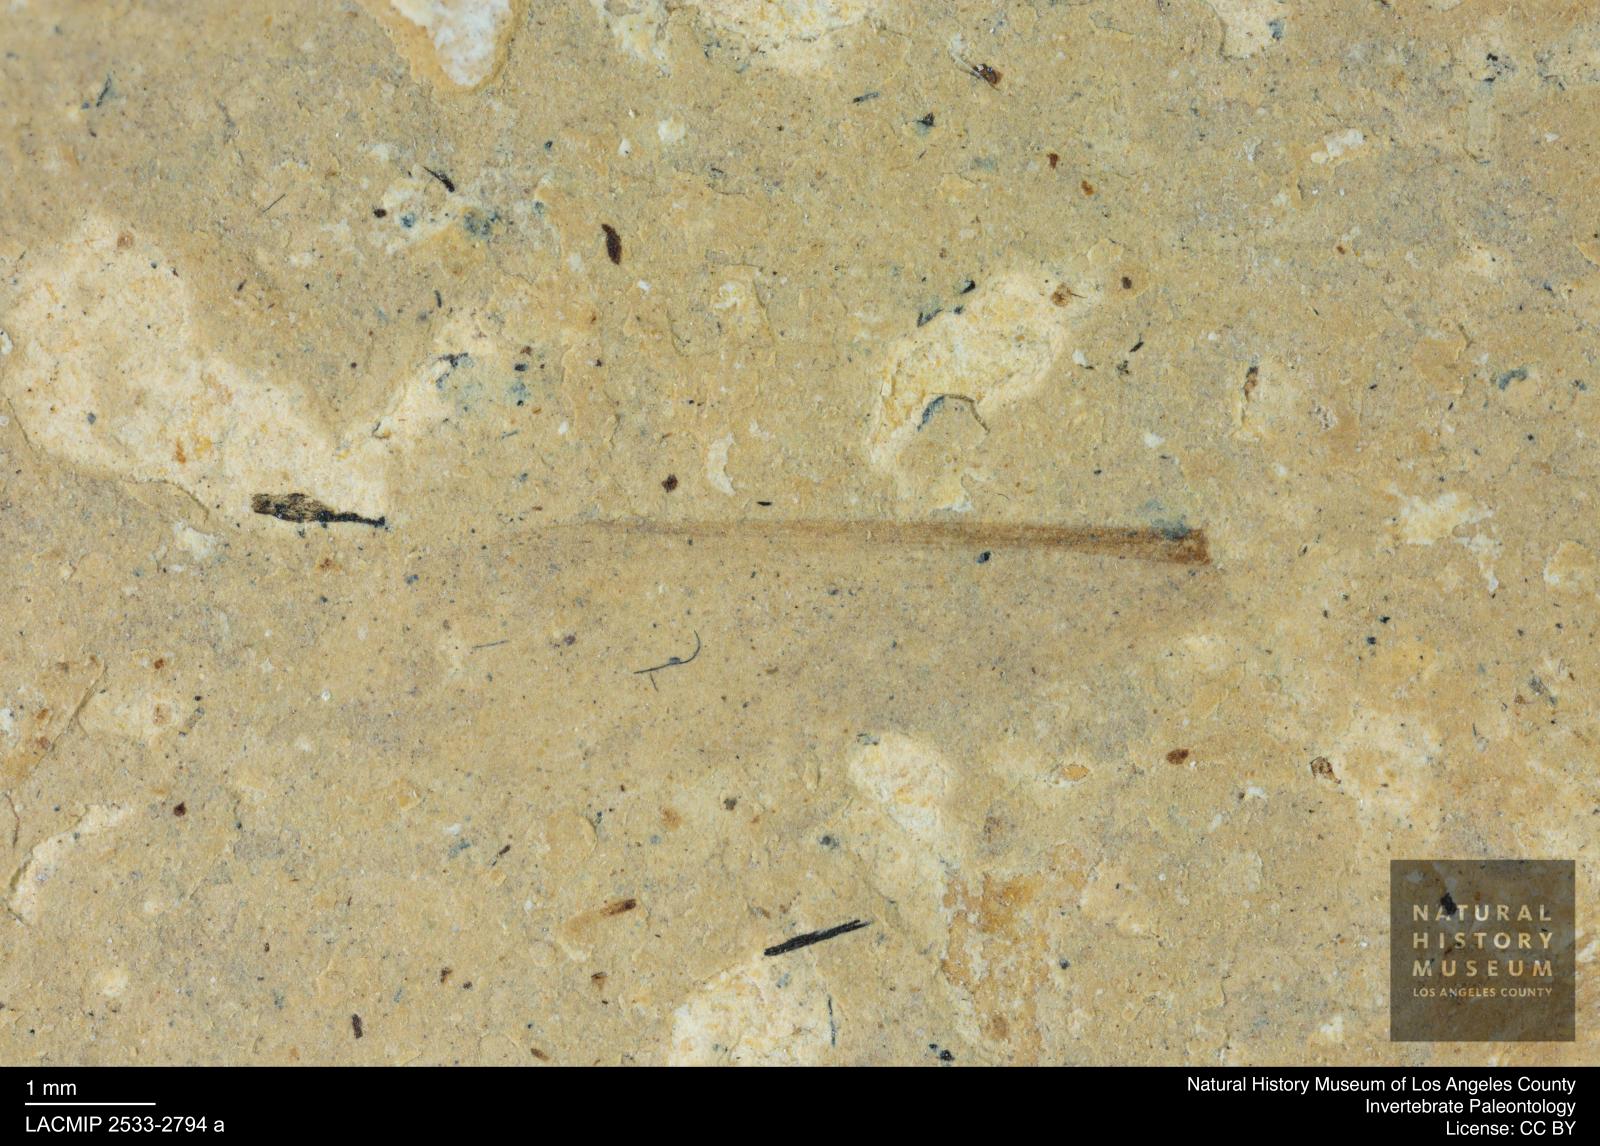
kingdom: Animalia
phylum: Arthropoda
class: Insecta
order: Blattodea
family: Kalotermitidae
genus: Kalotermes
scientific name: Kalotermes rhenanus
